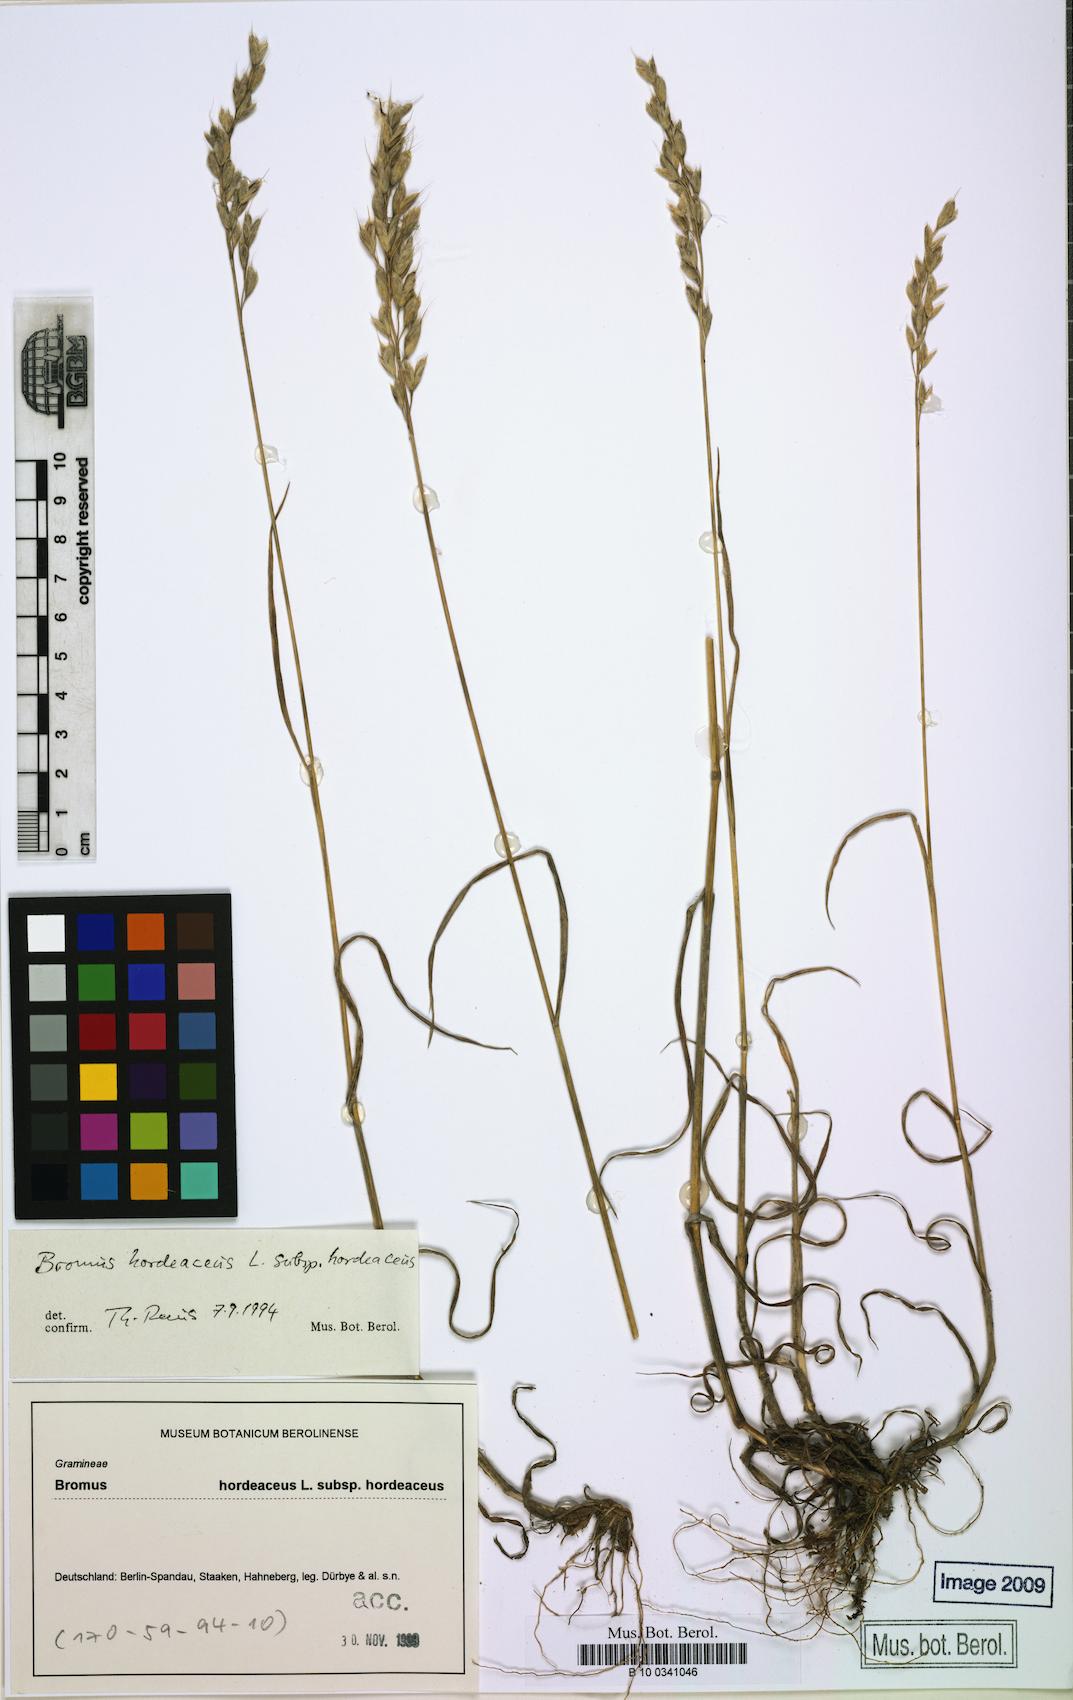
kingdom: Plantae
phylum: Tracheophyta
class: Liliopsida
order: Poales
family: Poaceae
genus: Bromus
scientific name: Bromus hordeaceus
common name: Soft brome
